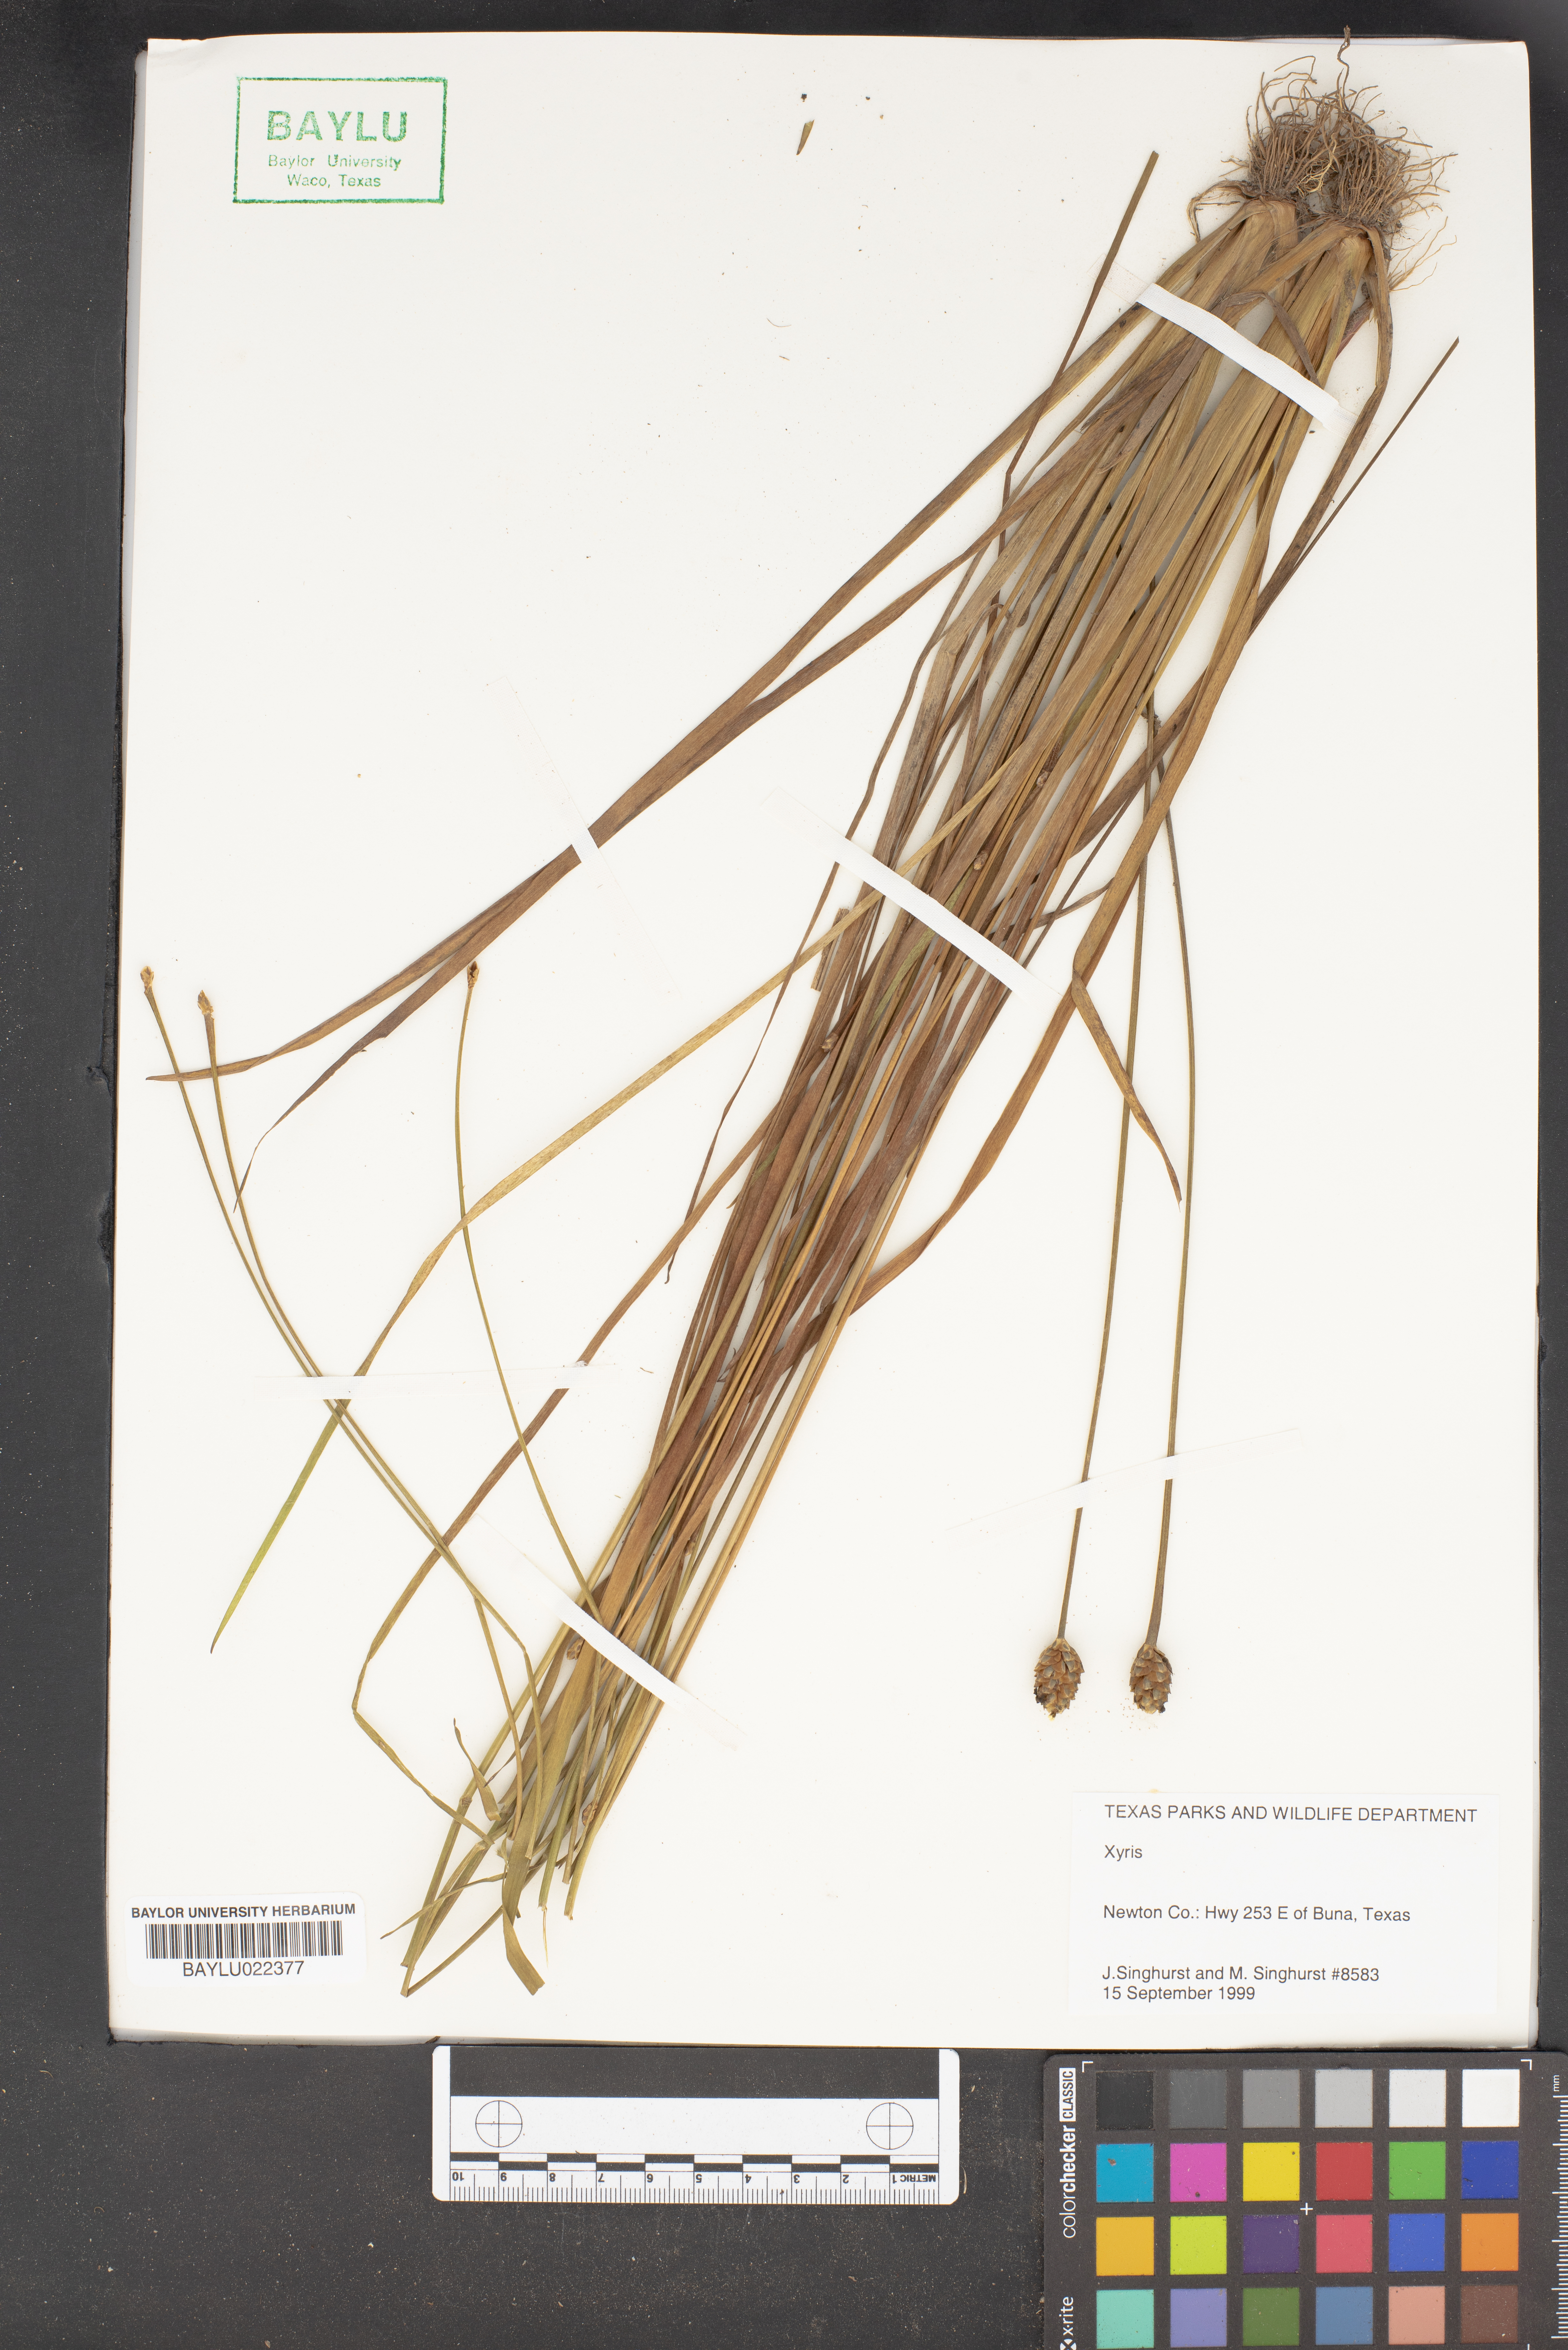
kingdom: Plantae
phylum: Tracheophyta
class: Liliopsida
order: Poales
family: Xyridaceae
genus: Xyris
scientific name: Xyris
